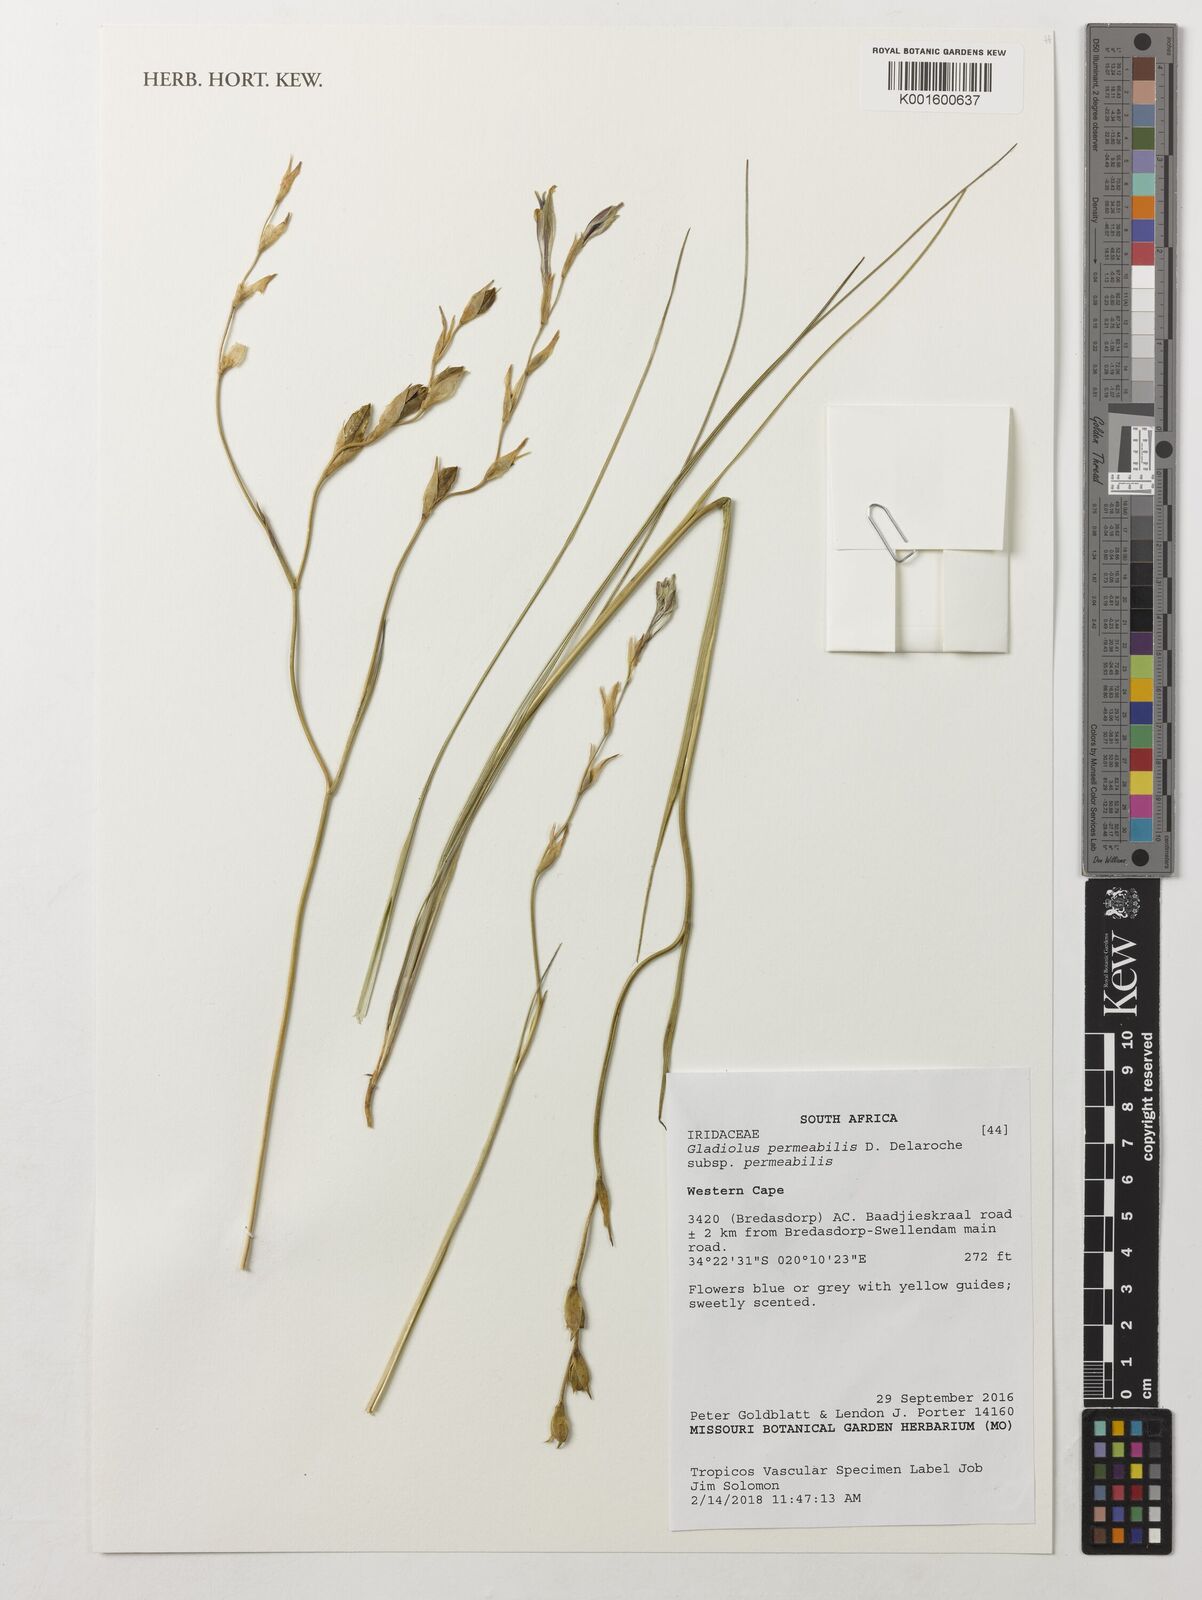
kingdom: Plantae
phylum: Tracheophyta
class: Liliopsida
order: Asparagales
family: Iridaceae
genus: Gladiolus
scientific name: Gladiolus permeabilis
